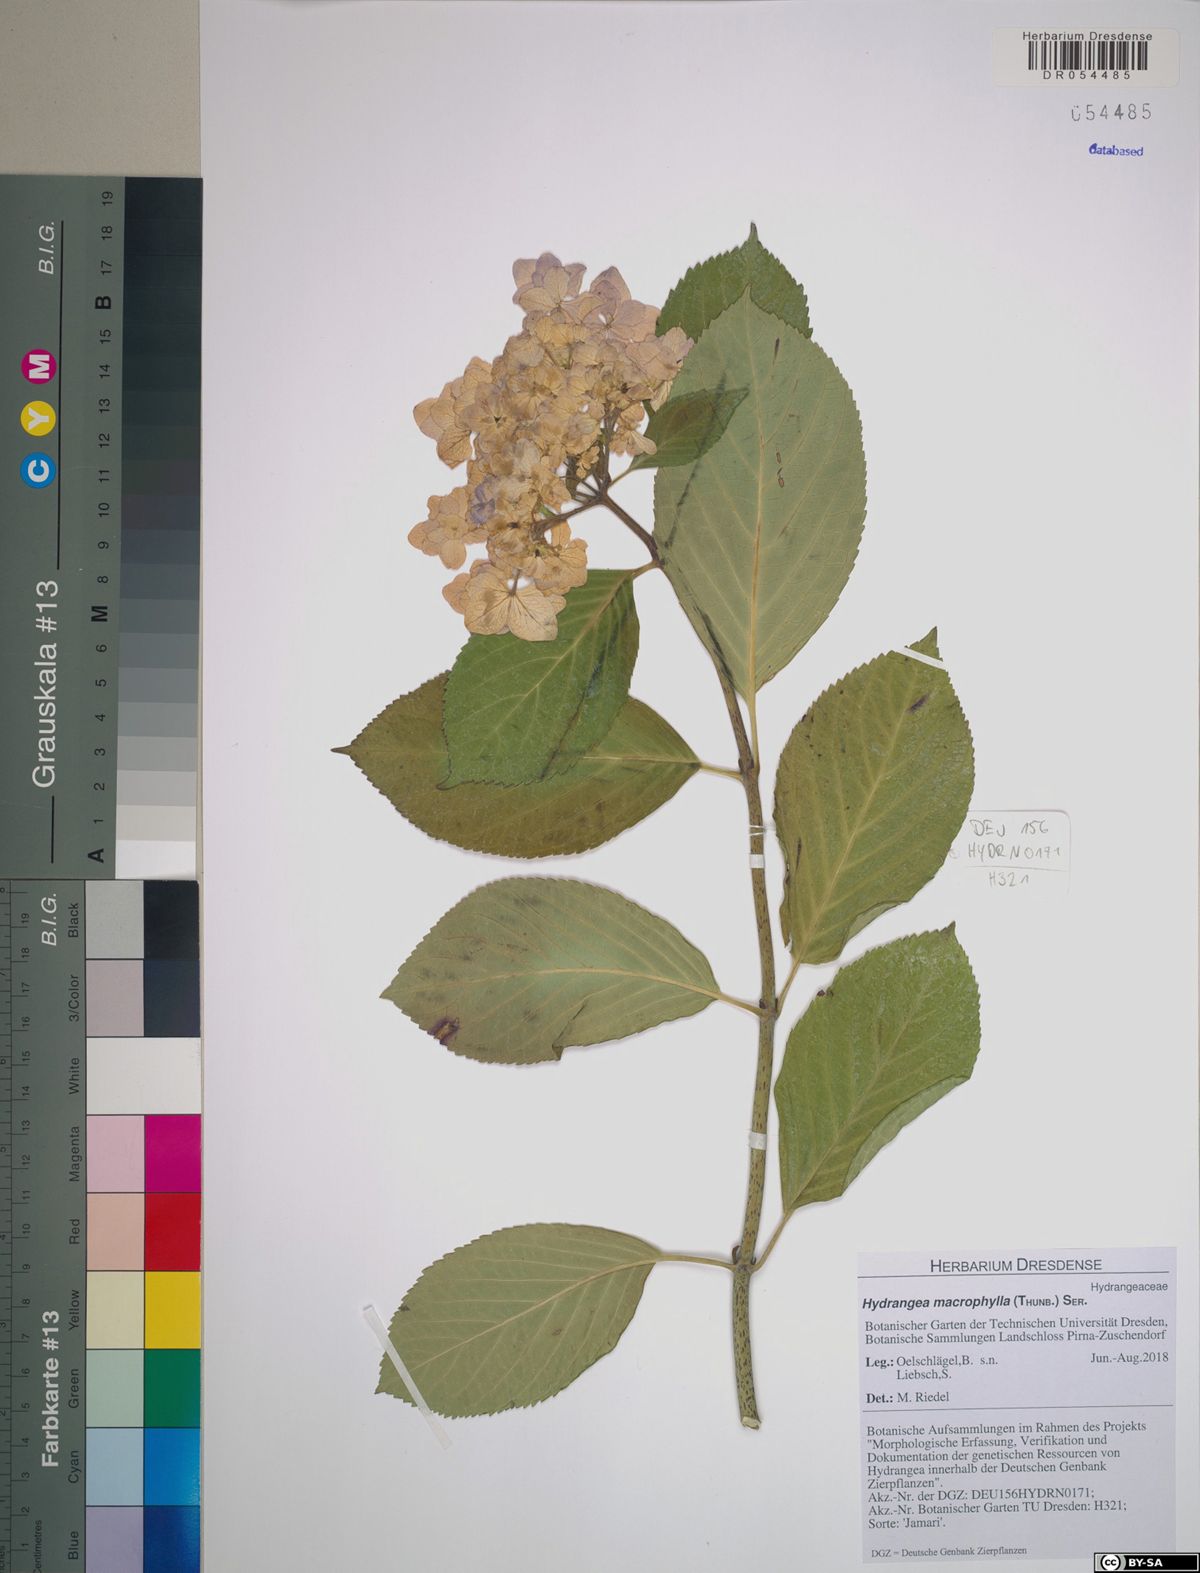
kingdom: Plantae
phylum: Tracheophyta
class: Magnoliopsida
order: Cornales
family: Hydrangeaceae
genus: Hydrangea
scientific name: Hydrangea macrophylla
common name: Hydrangea
